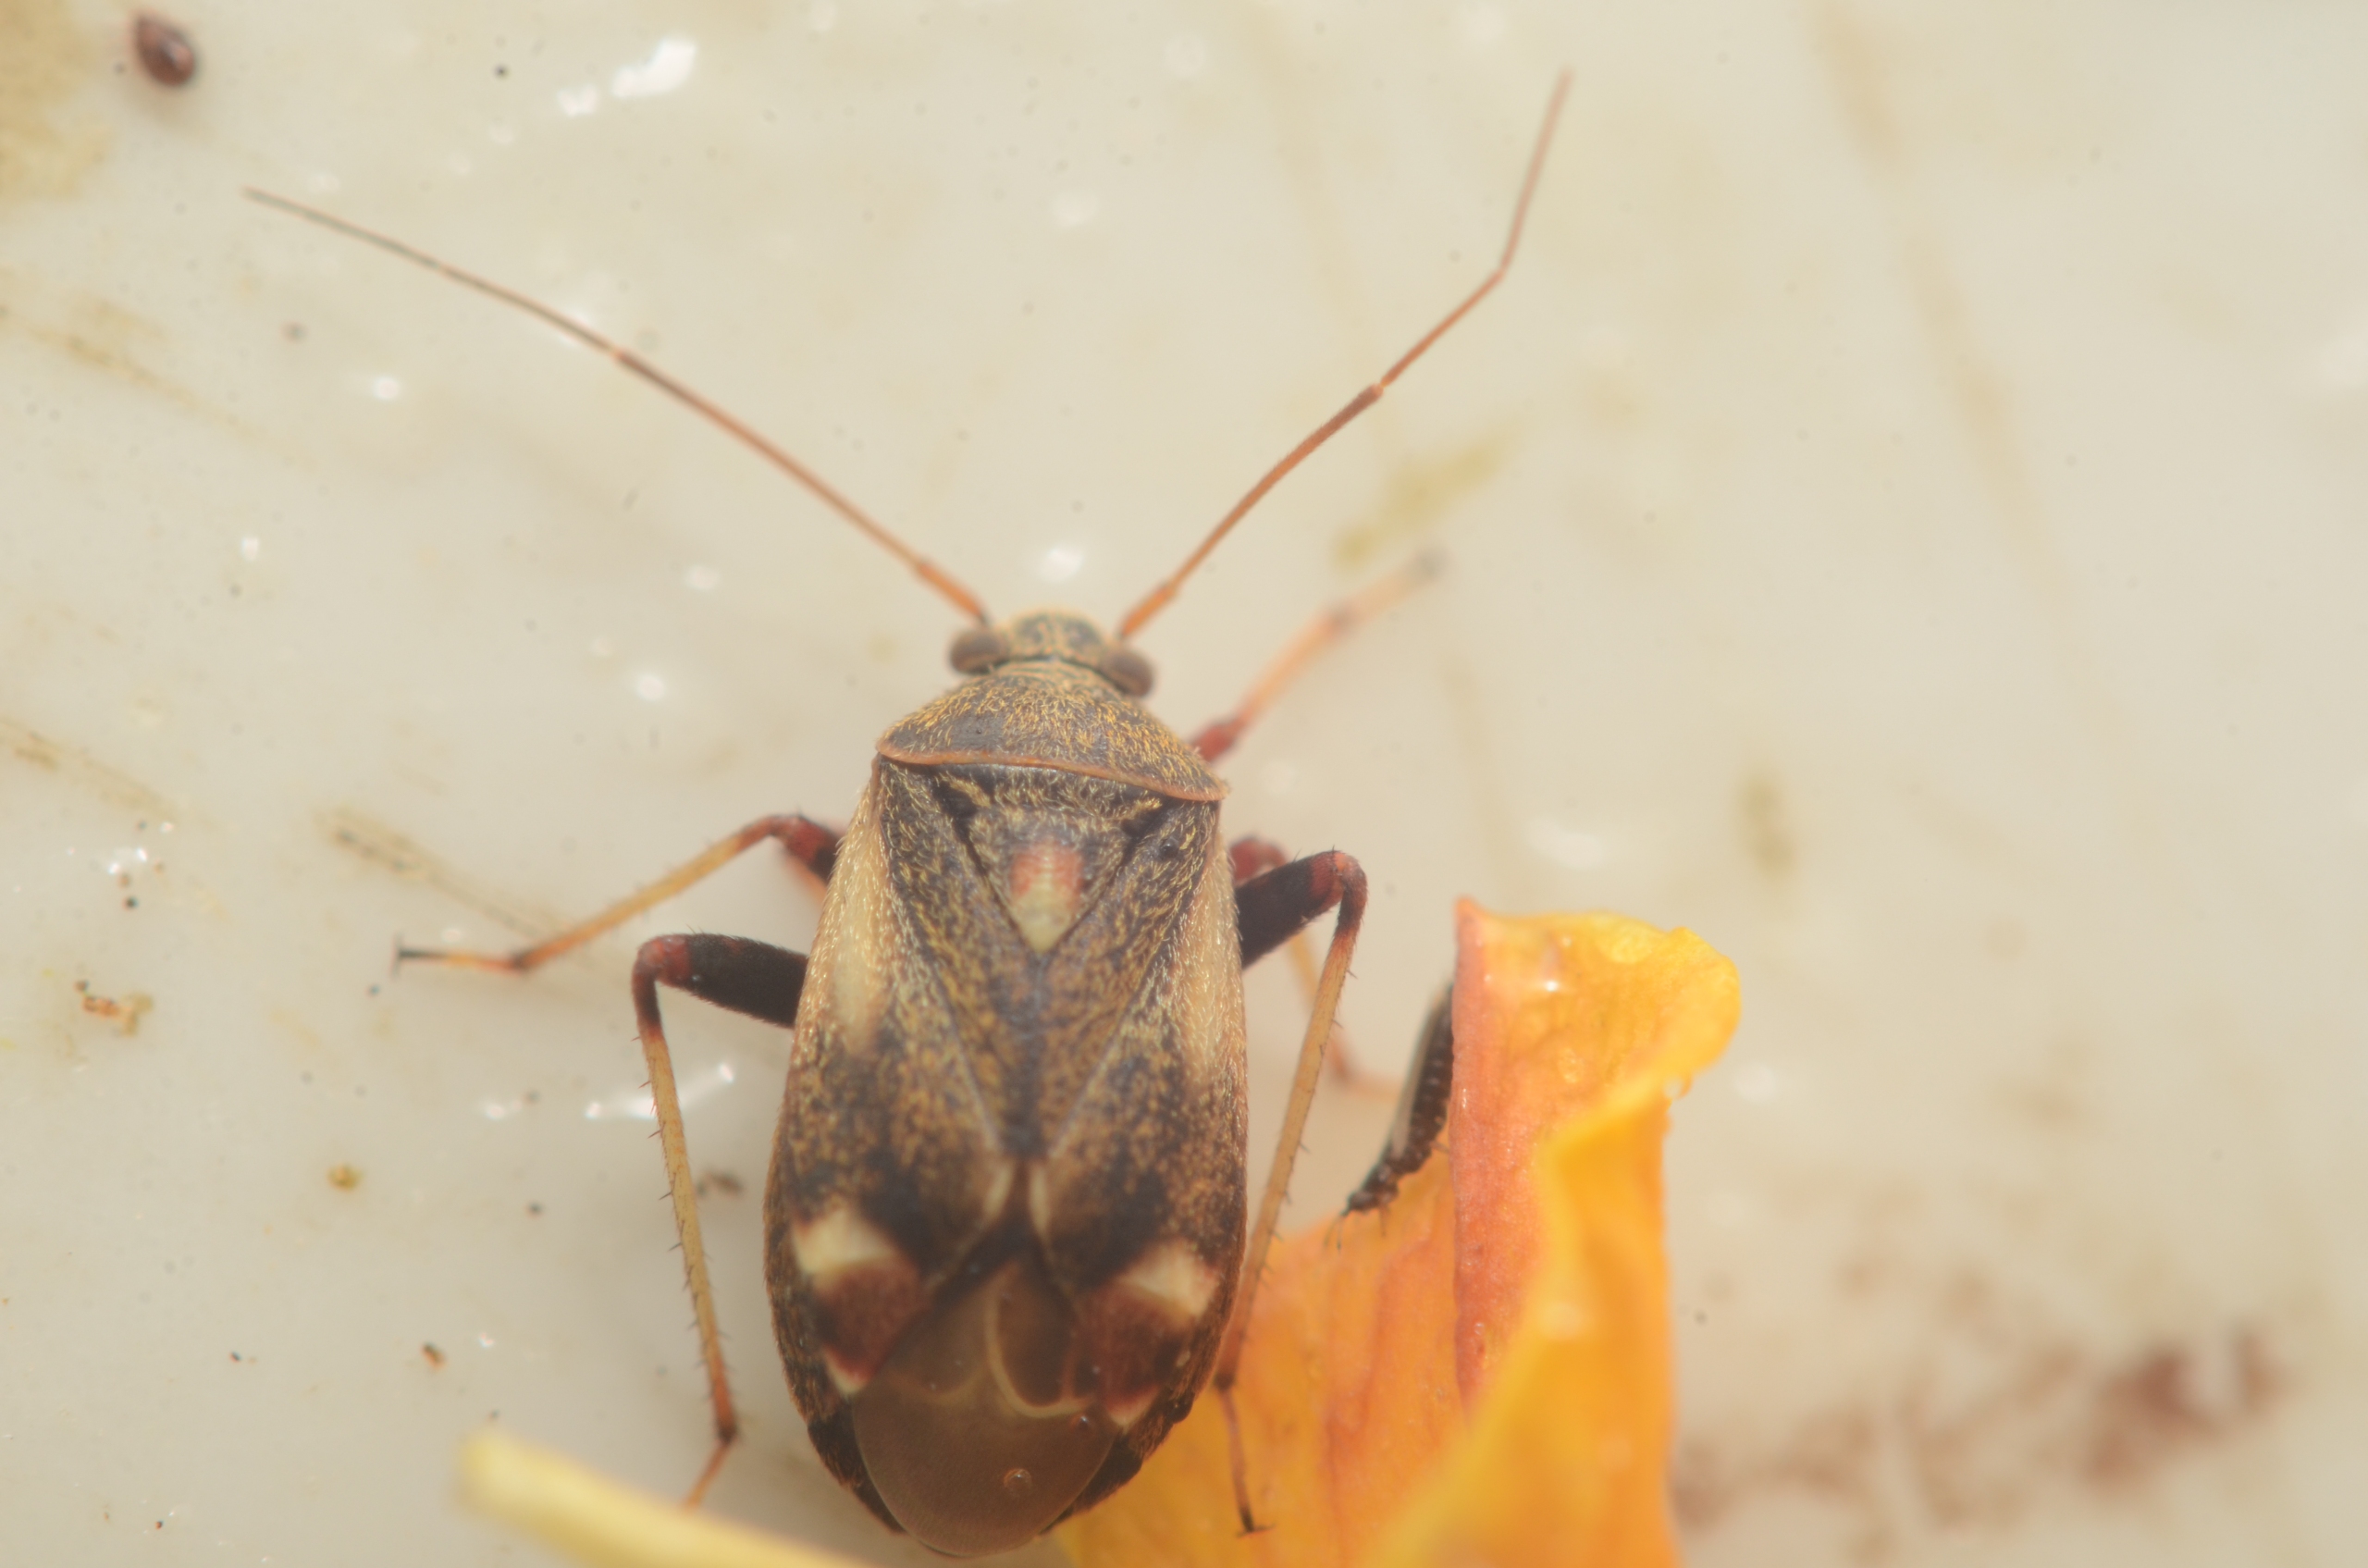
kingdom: Animalia
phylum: Arthropoda
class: Insecta
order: Hemiptera
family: Miridae
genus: Polymerus
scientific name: Polymerus palustris
